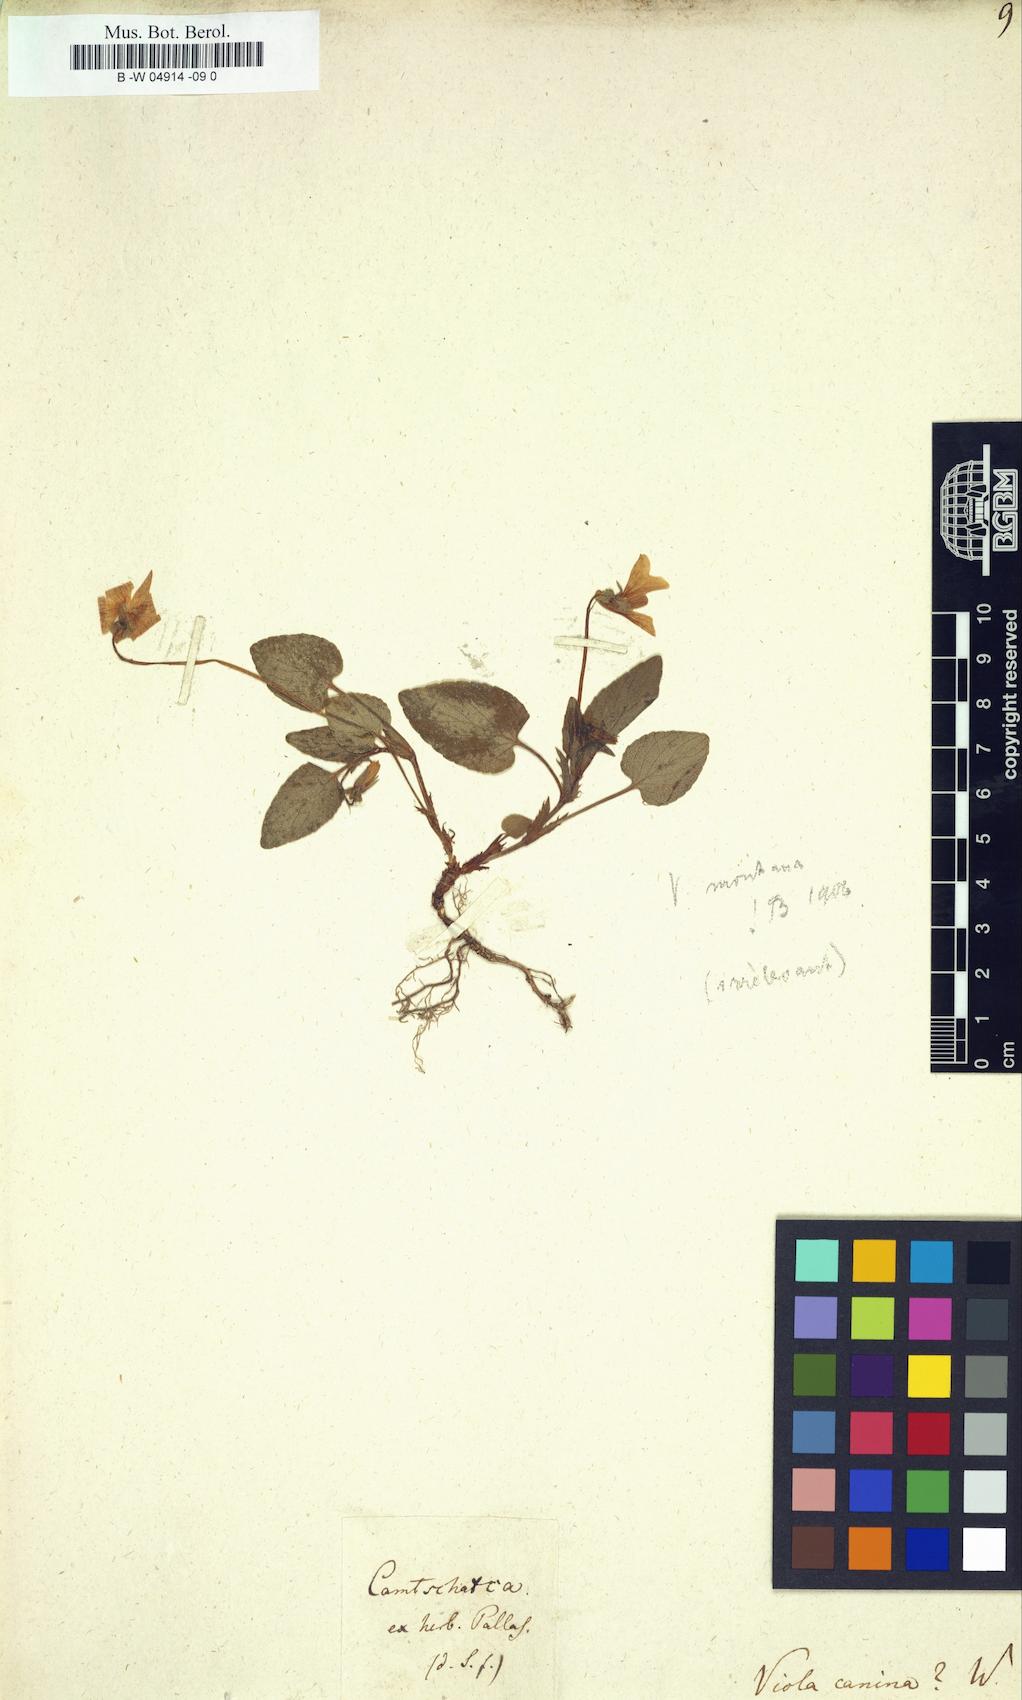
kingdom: Plantae
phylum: Tracheophyta
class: Magnoliopsida
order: Malpighiales
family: Violaceae
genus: Viola
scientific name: Viola canina
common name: Heath dog-violet
